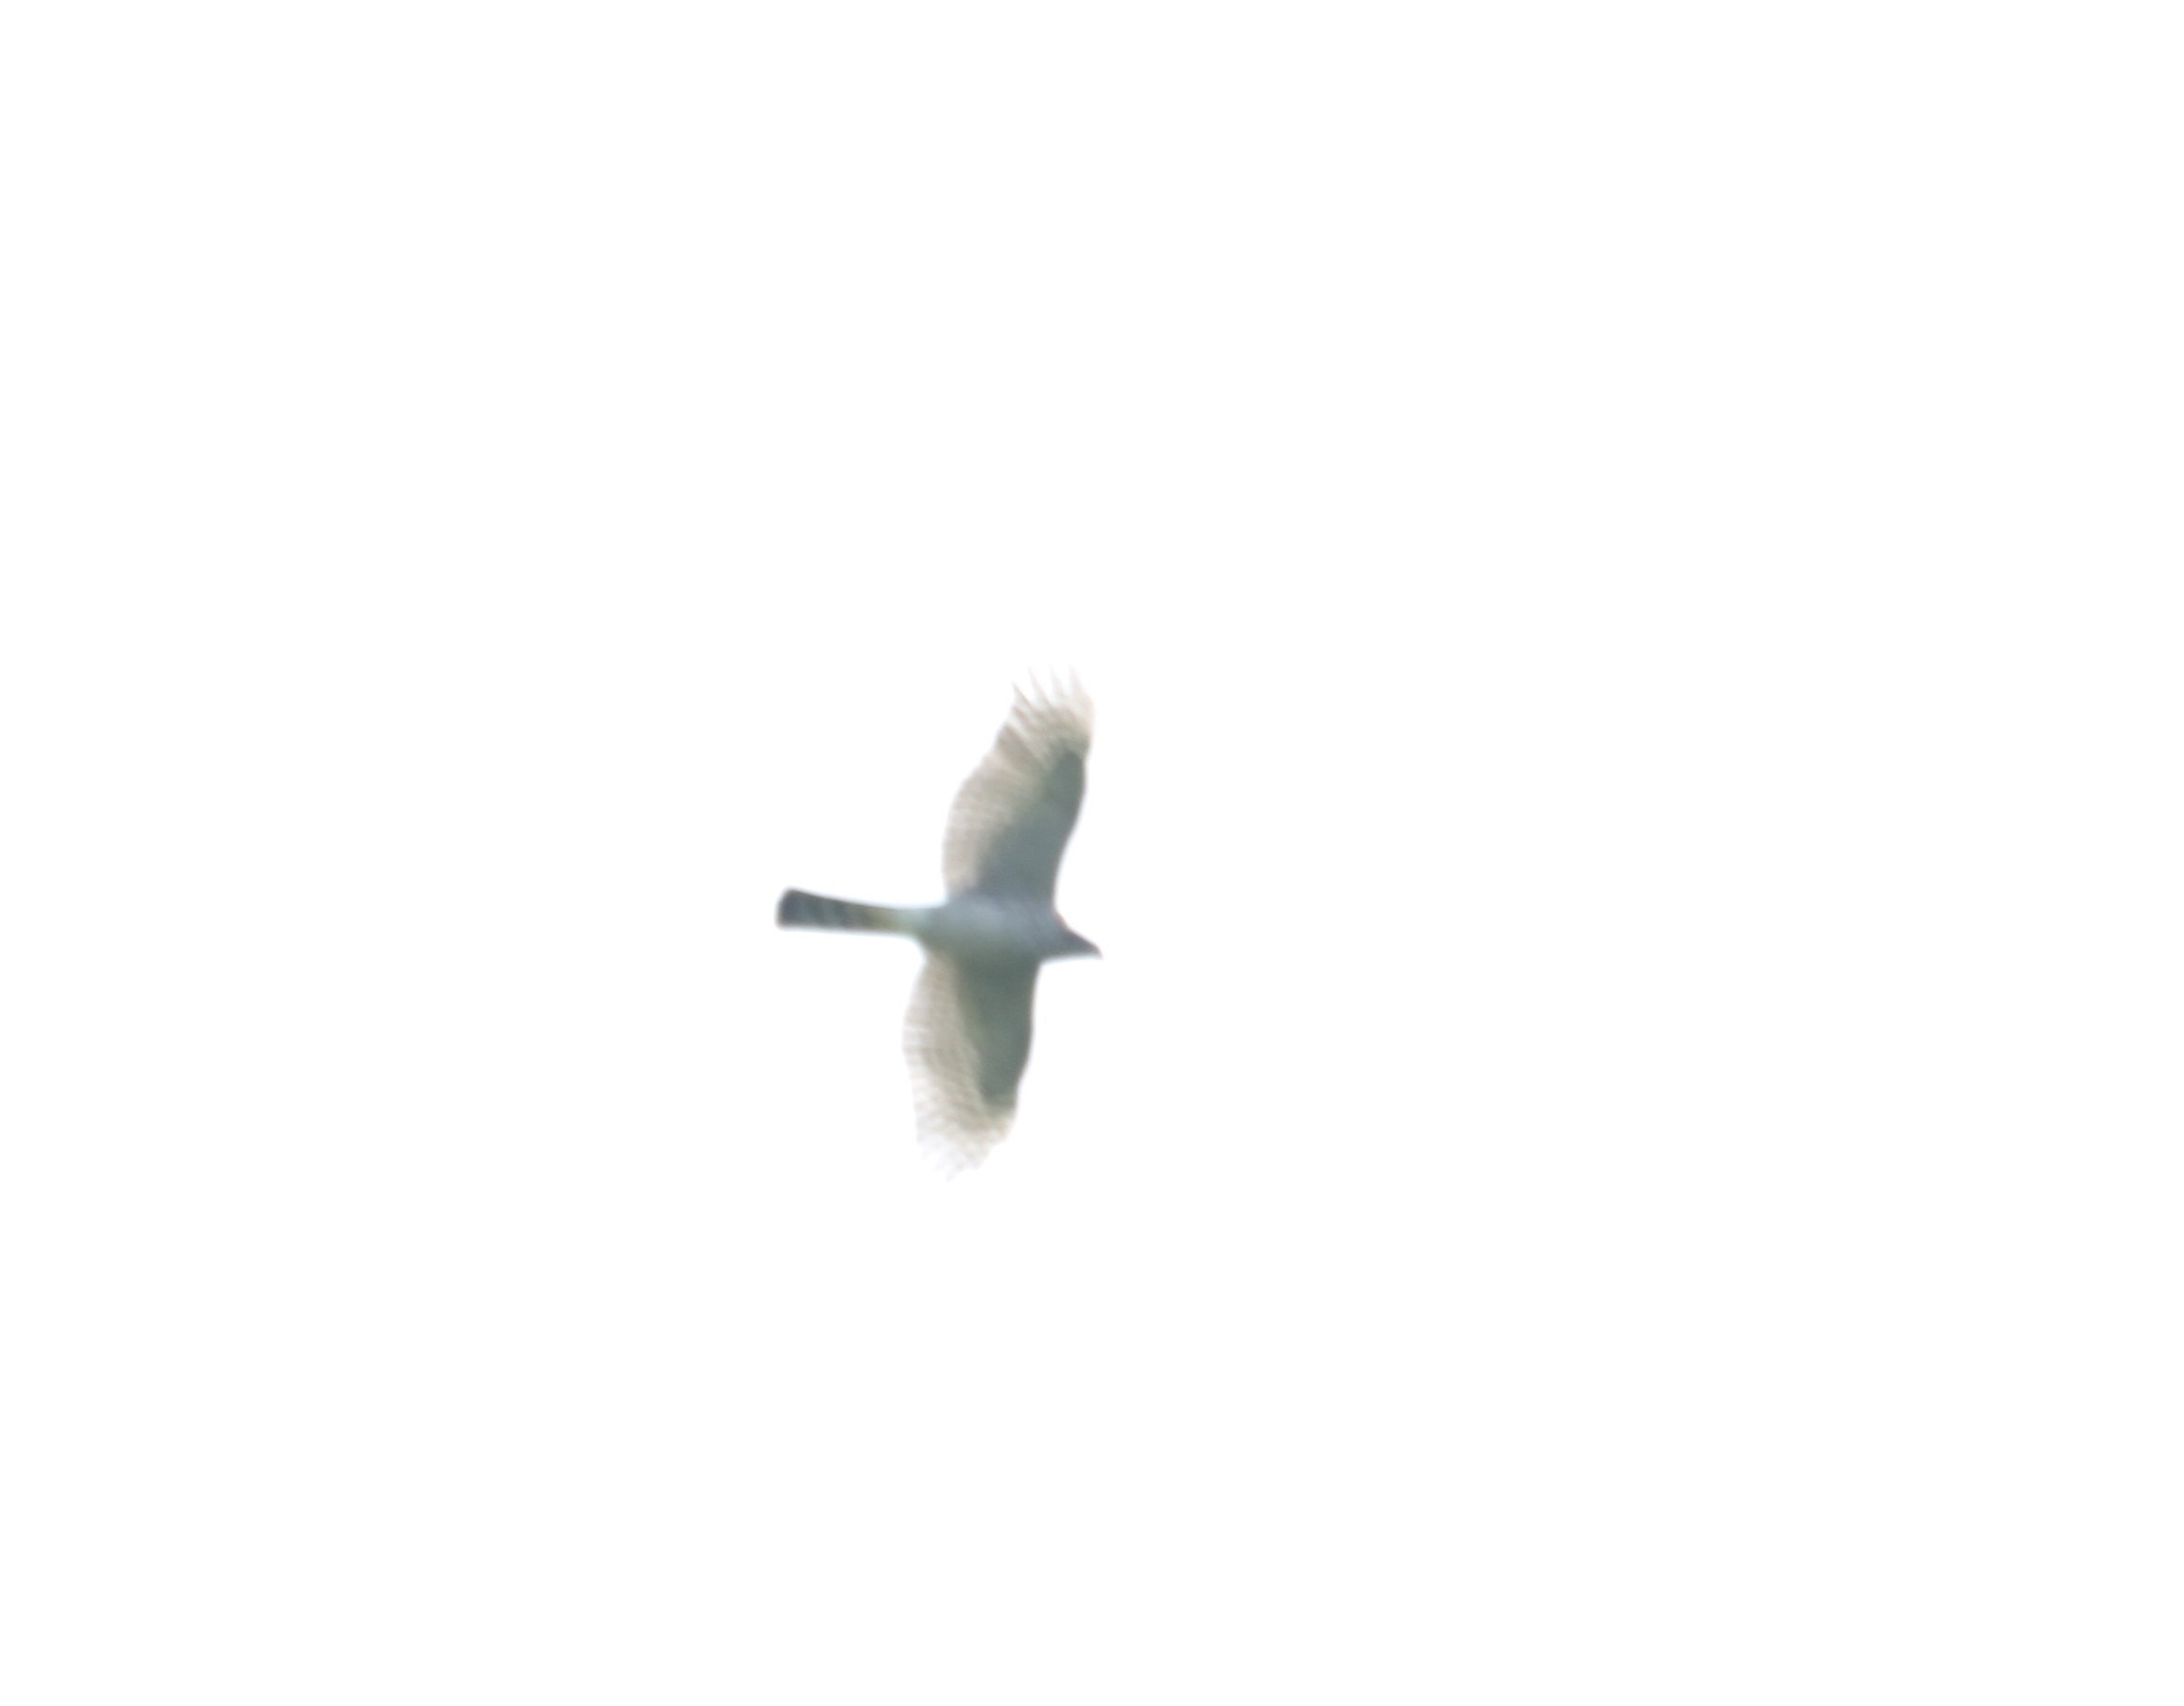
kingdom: Animalia
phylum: Chordata
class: Aves
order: Accipitriformes
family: Accipitridae
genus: Accipiter
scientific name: Accipiter nisus
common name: Spurvehøg
